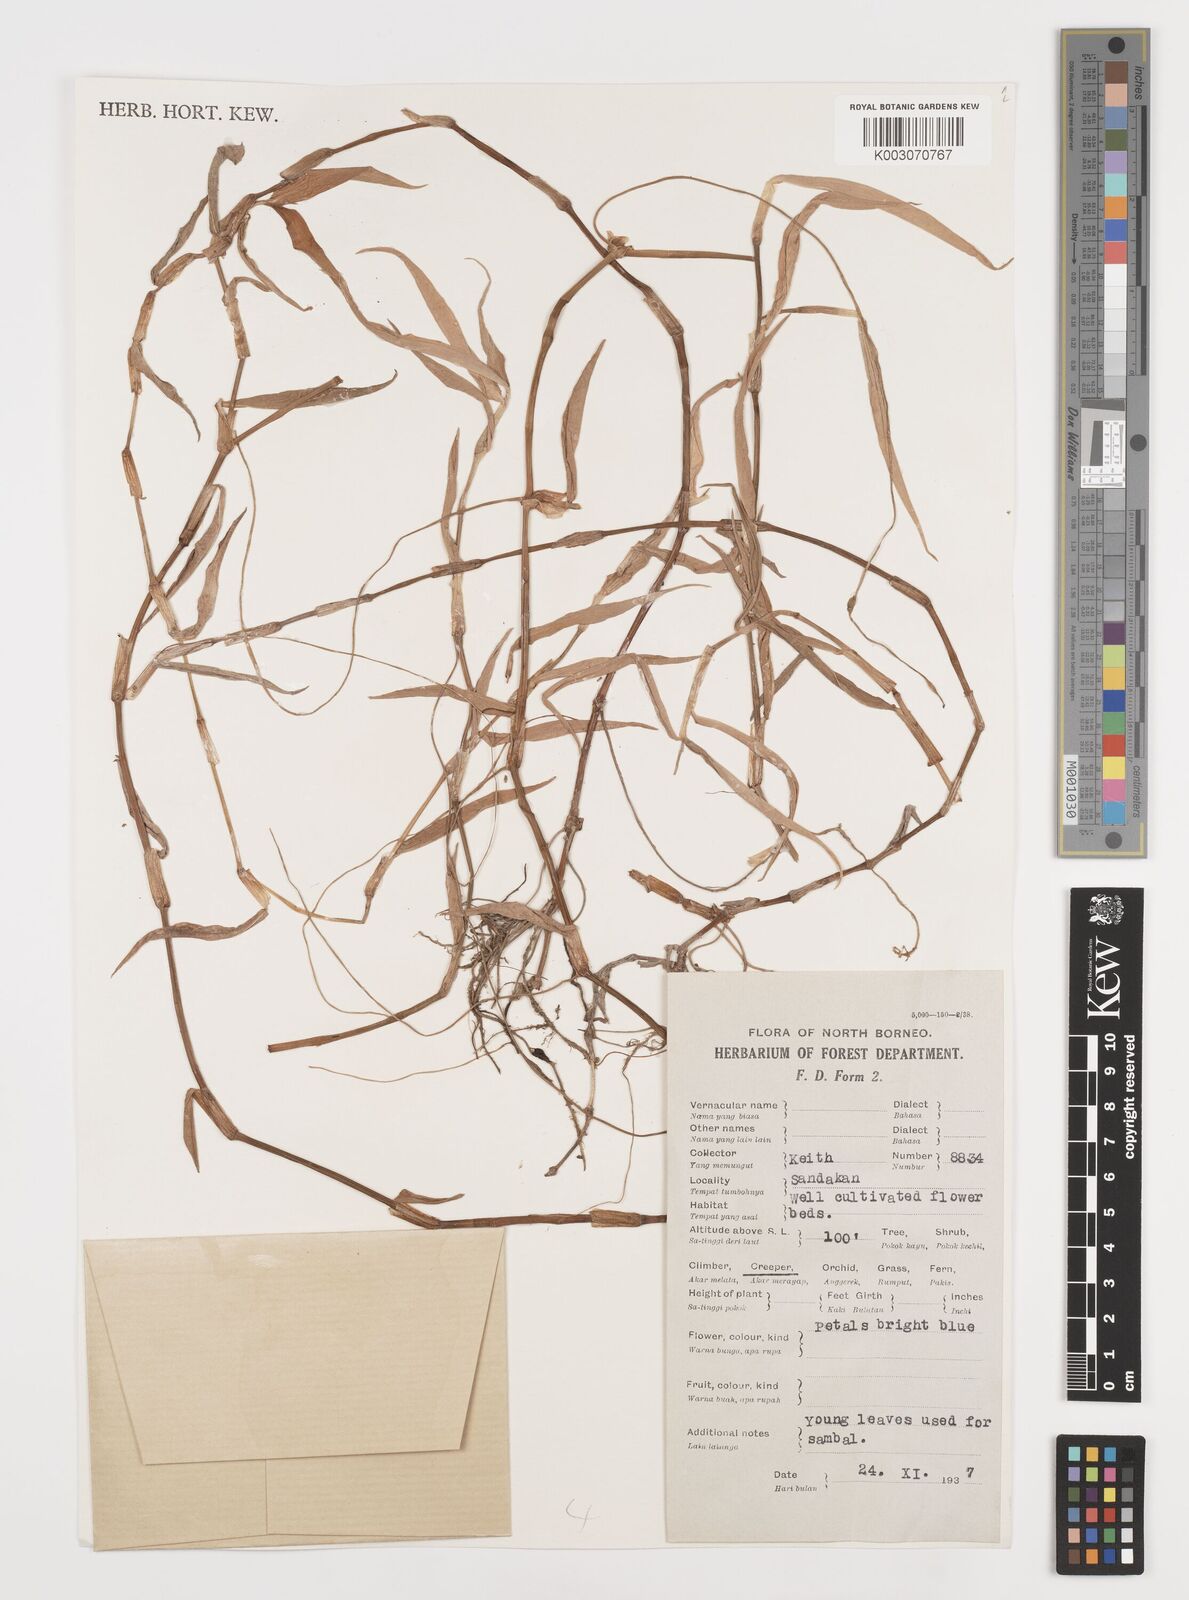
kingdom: Plantae
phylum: Tracheophyta
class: Liliopsida
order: Commelinales
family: Commelinaceae
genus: Commelina
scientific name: Commelina
